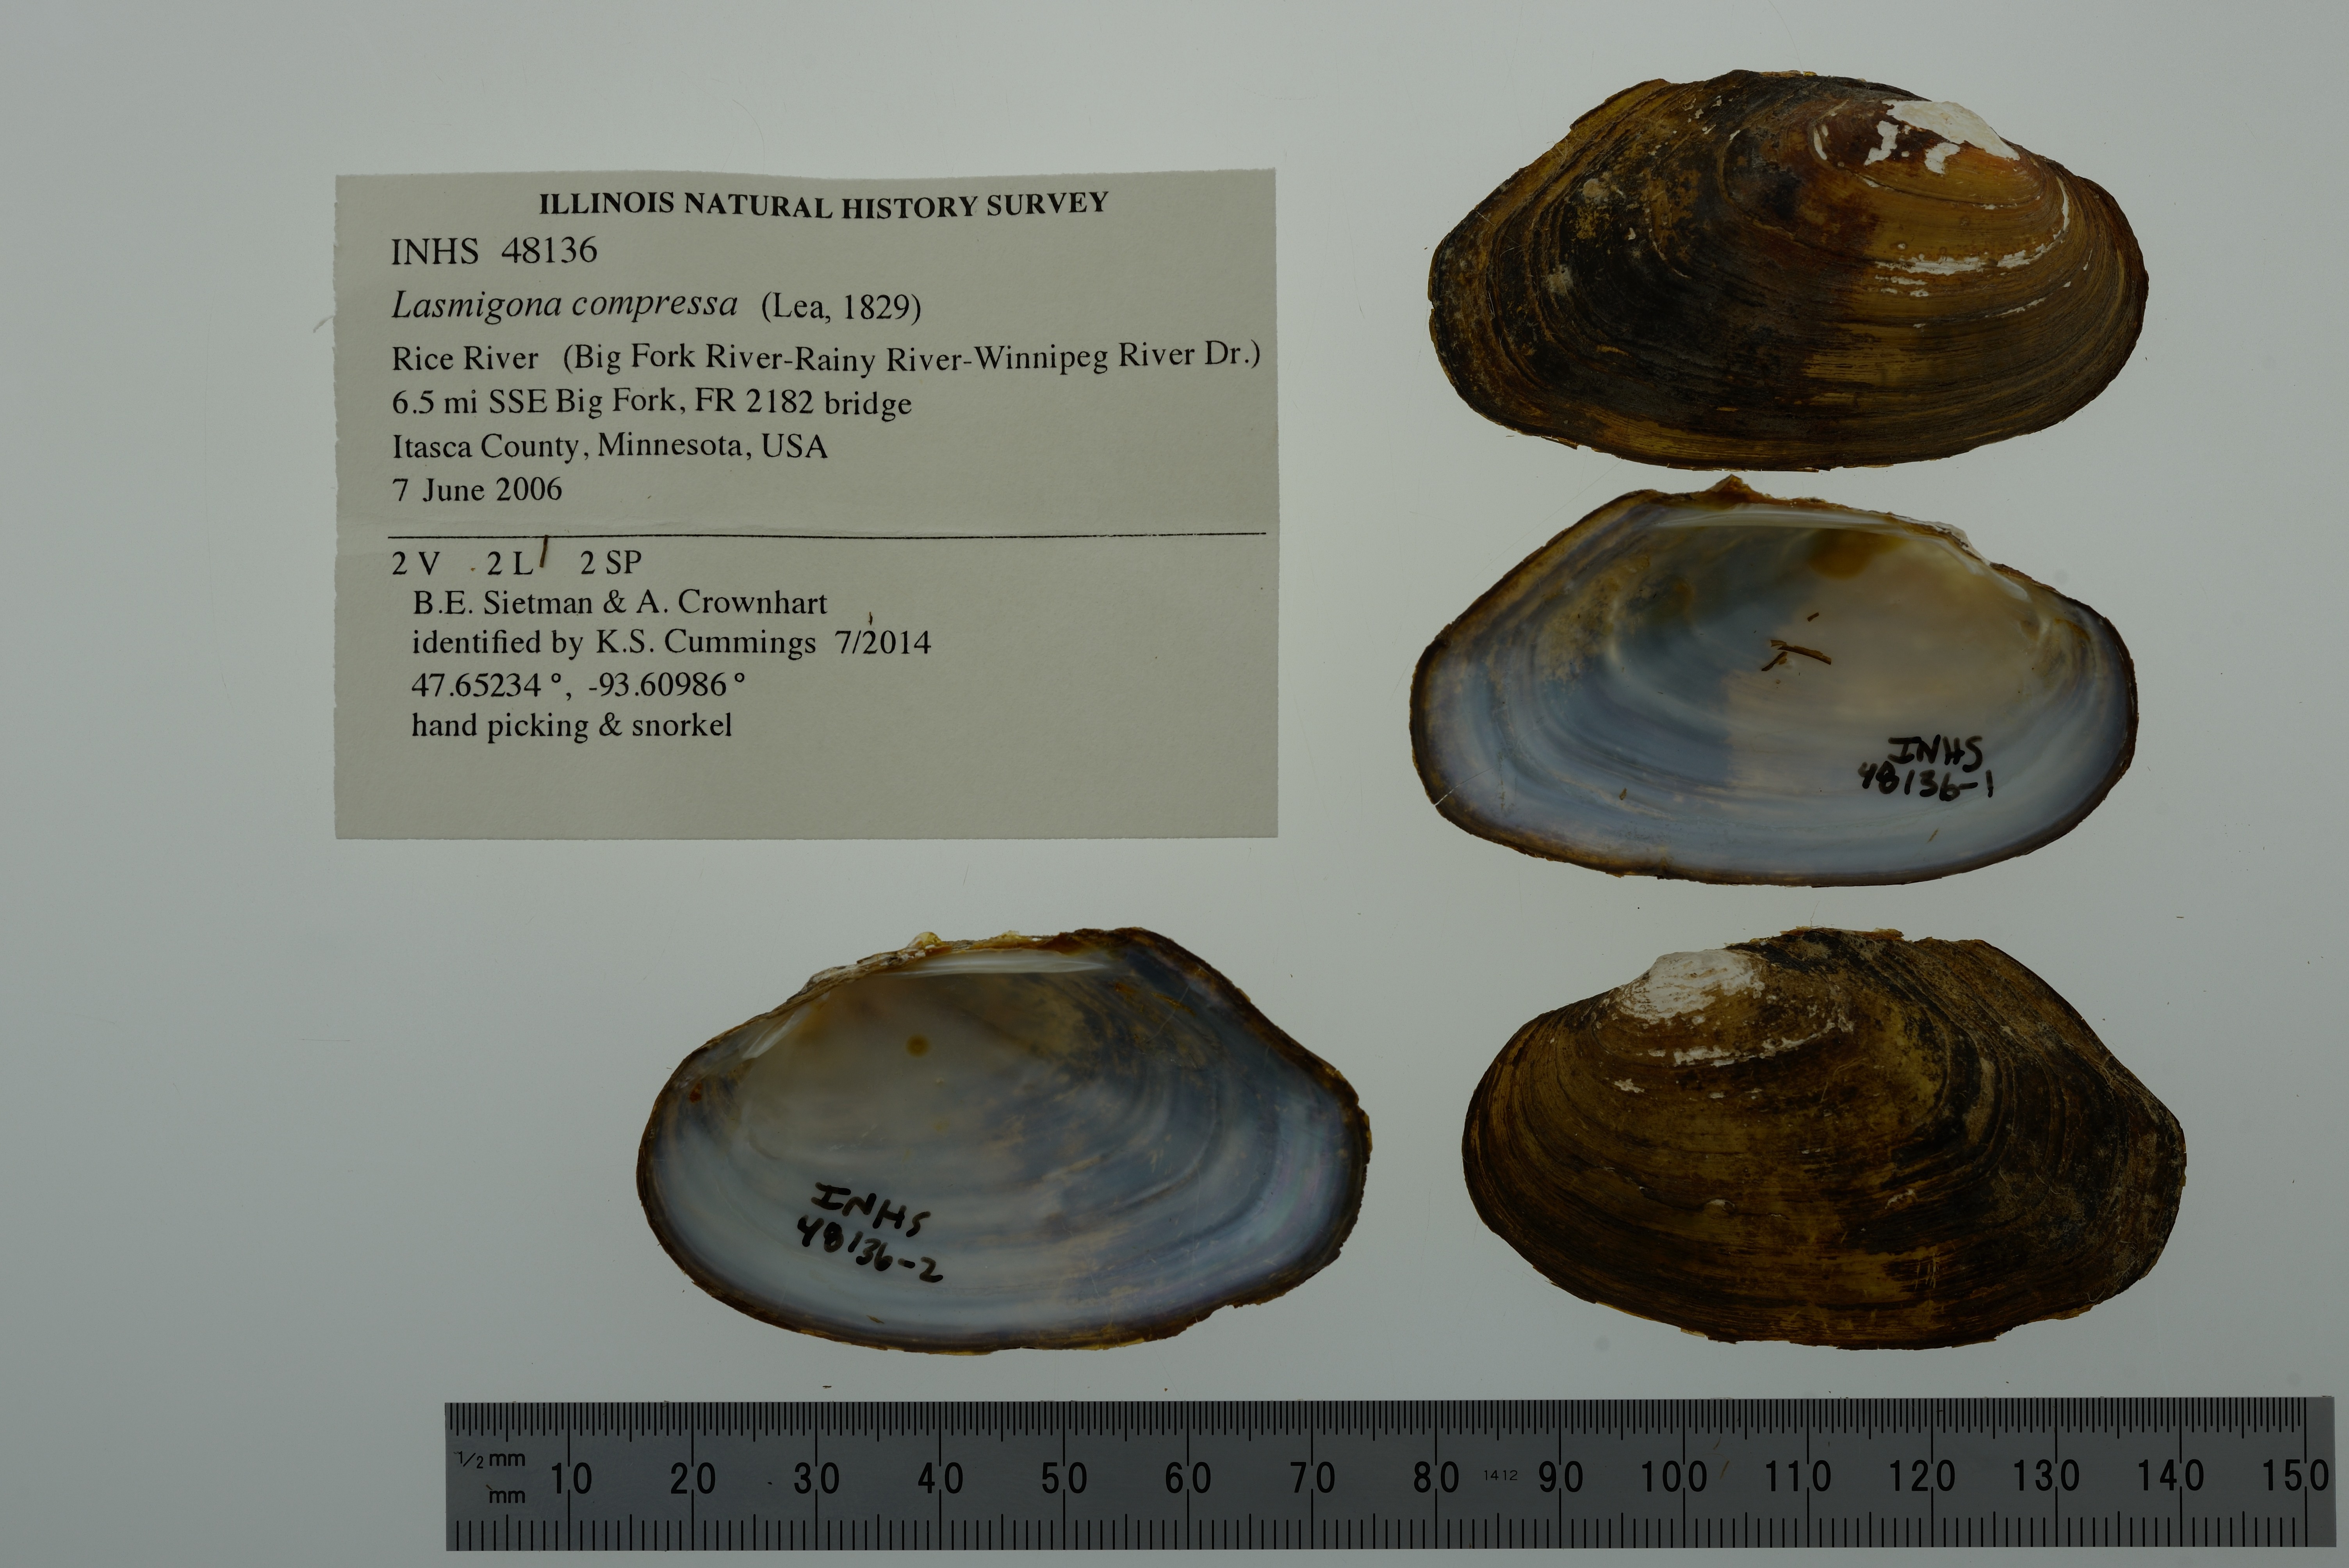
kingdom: Animalia
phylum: Mollusca
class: Bivalvia
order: Unionida
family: Unionidae
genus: Lasmigona
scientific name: Lasmigona compressa
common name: Creek heelsplitter
